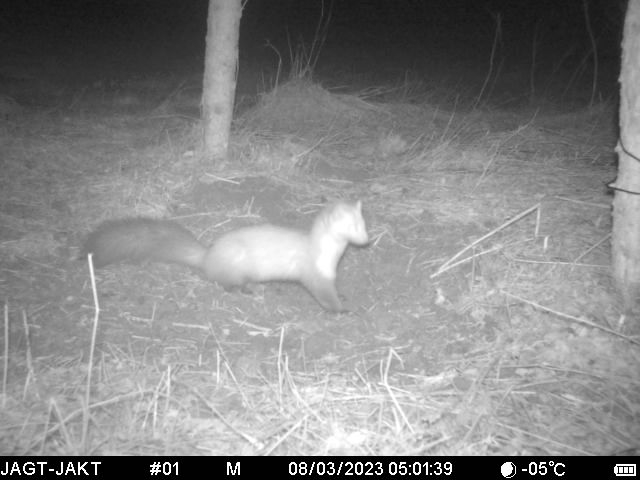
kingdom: Animalia
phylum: Chordata
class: Mammalia
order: Carnivora
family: Mustelidae
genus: Martes
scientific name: Martes foina
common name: Husmår
